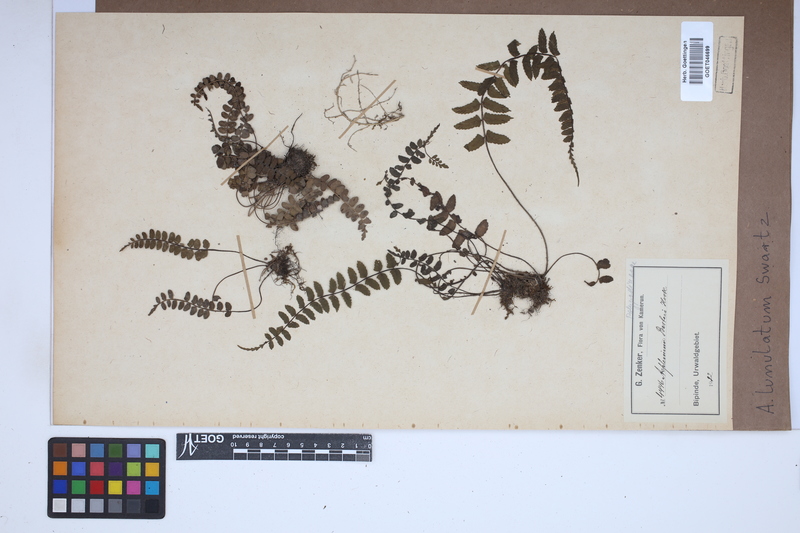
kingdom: Plantae
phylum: Tracheophyta
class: Polypodiopsida
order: Polypodiales
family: Aspleniaceae
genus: Asplenium
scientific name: Asplenium lunulatum
